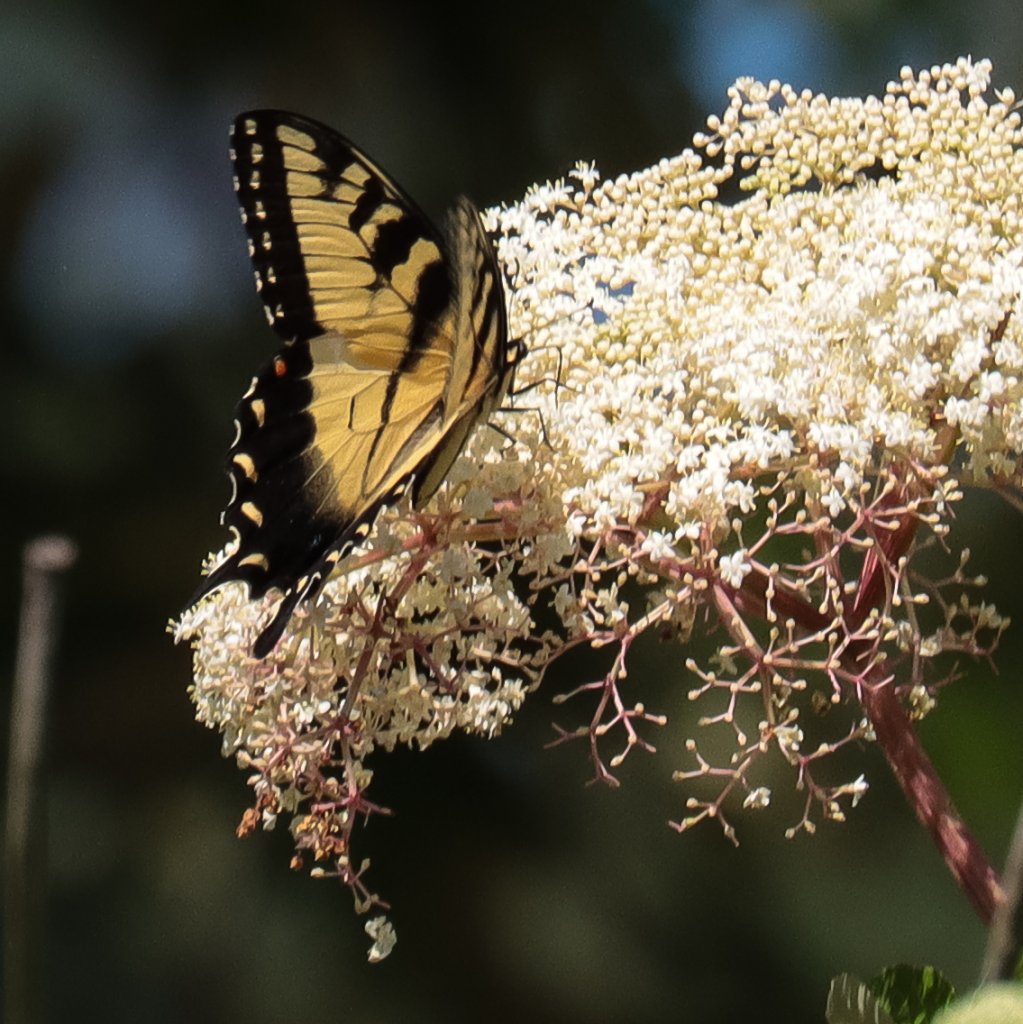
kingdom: Animalia
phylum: Arthropoda
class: Insecta
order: Lepidoptera
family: Papilionidae
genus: Pterourus
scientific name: Pterourus glaucus
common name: Eastern Tiger Swallowtail
